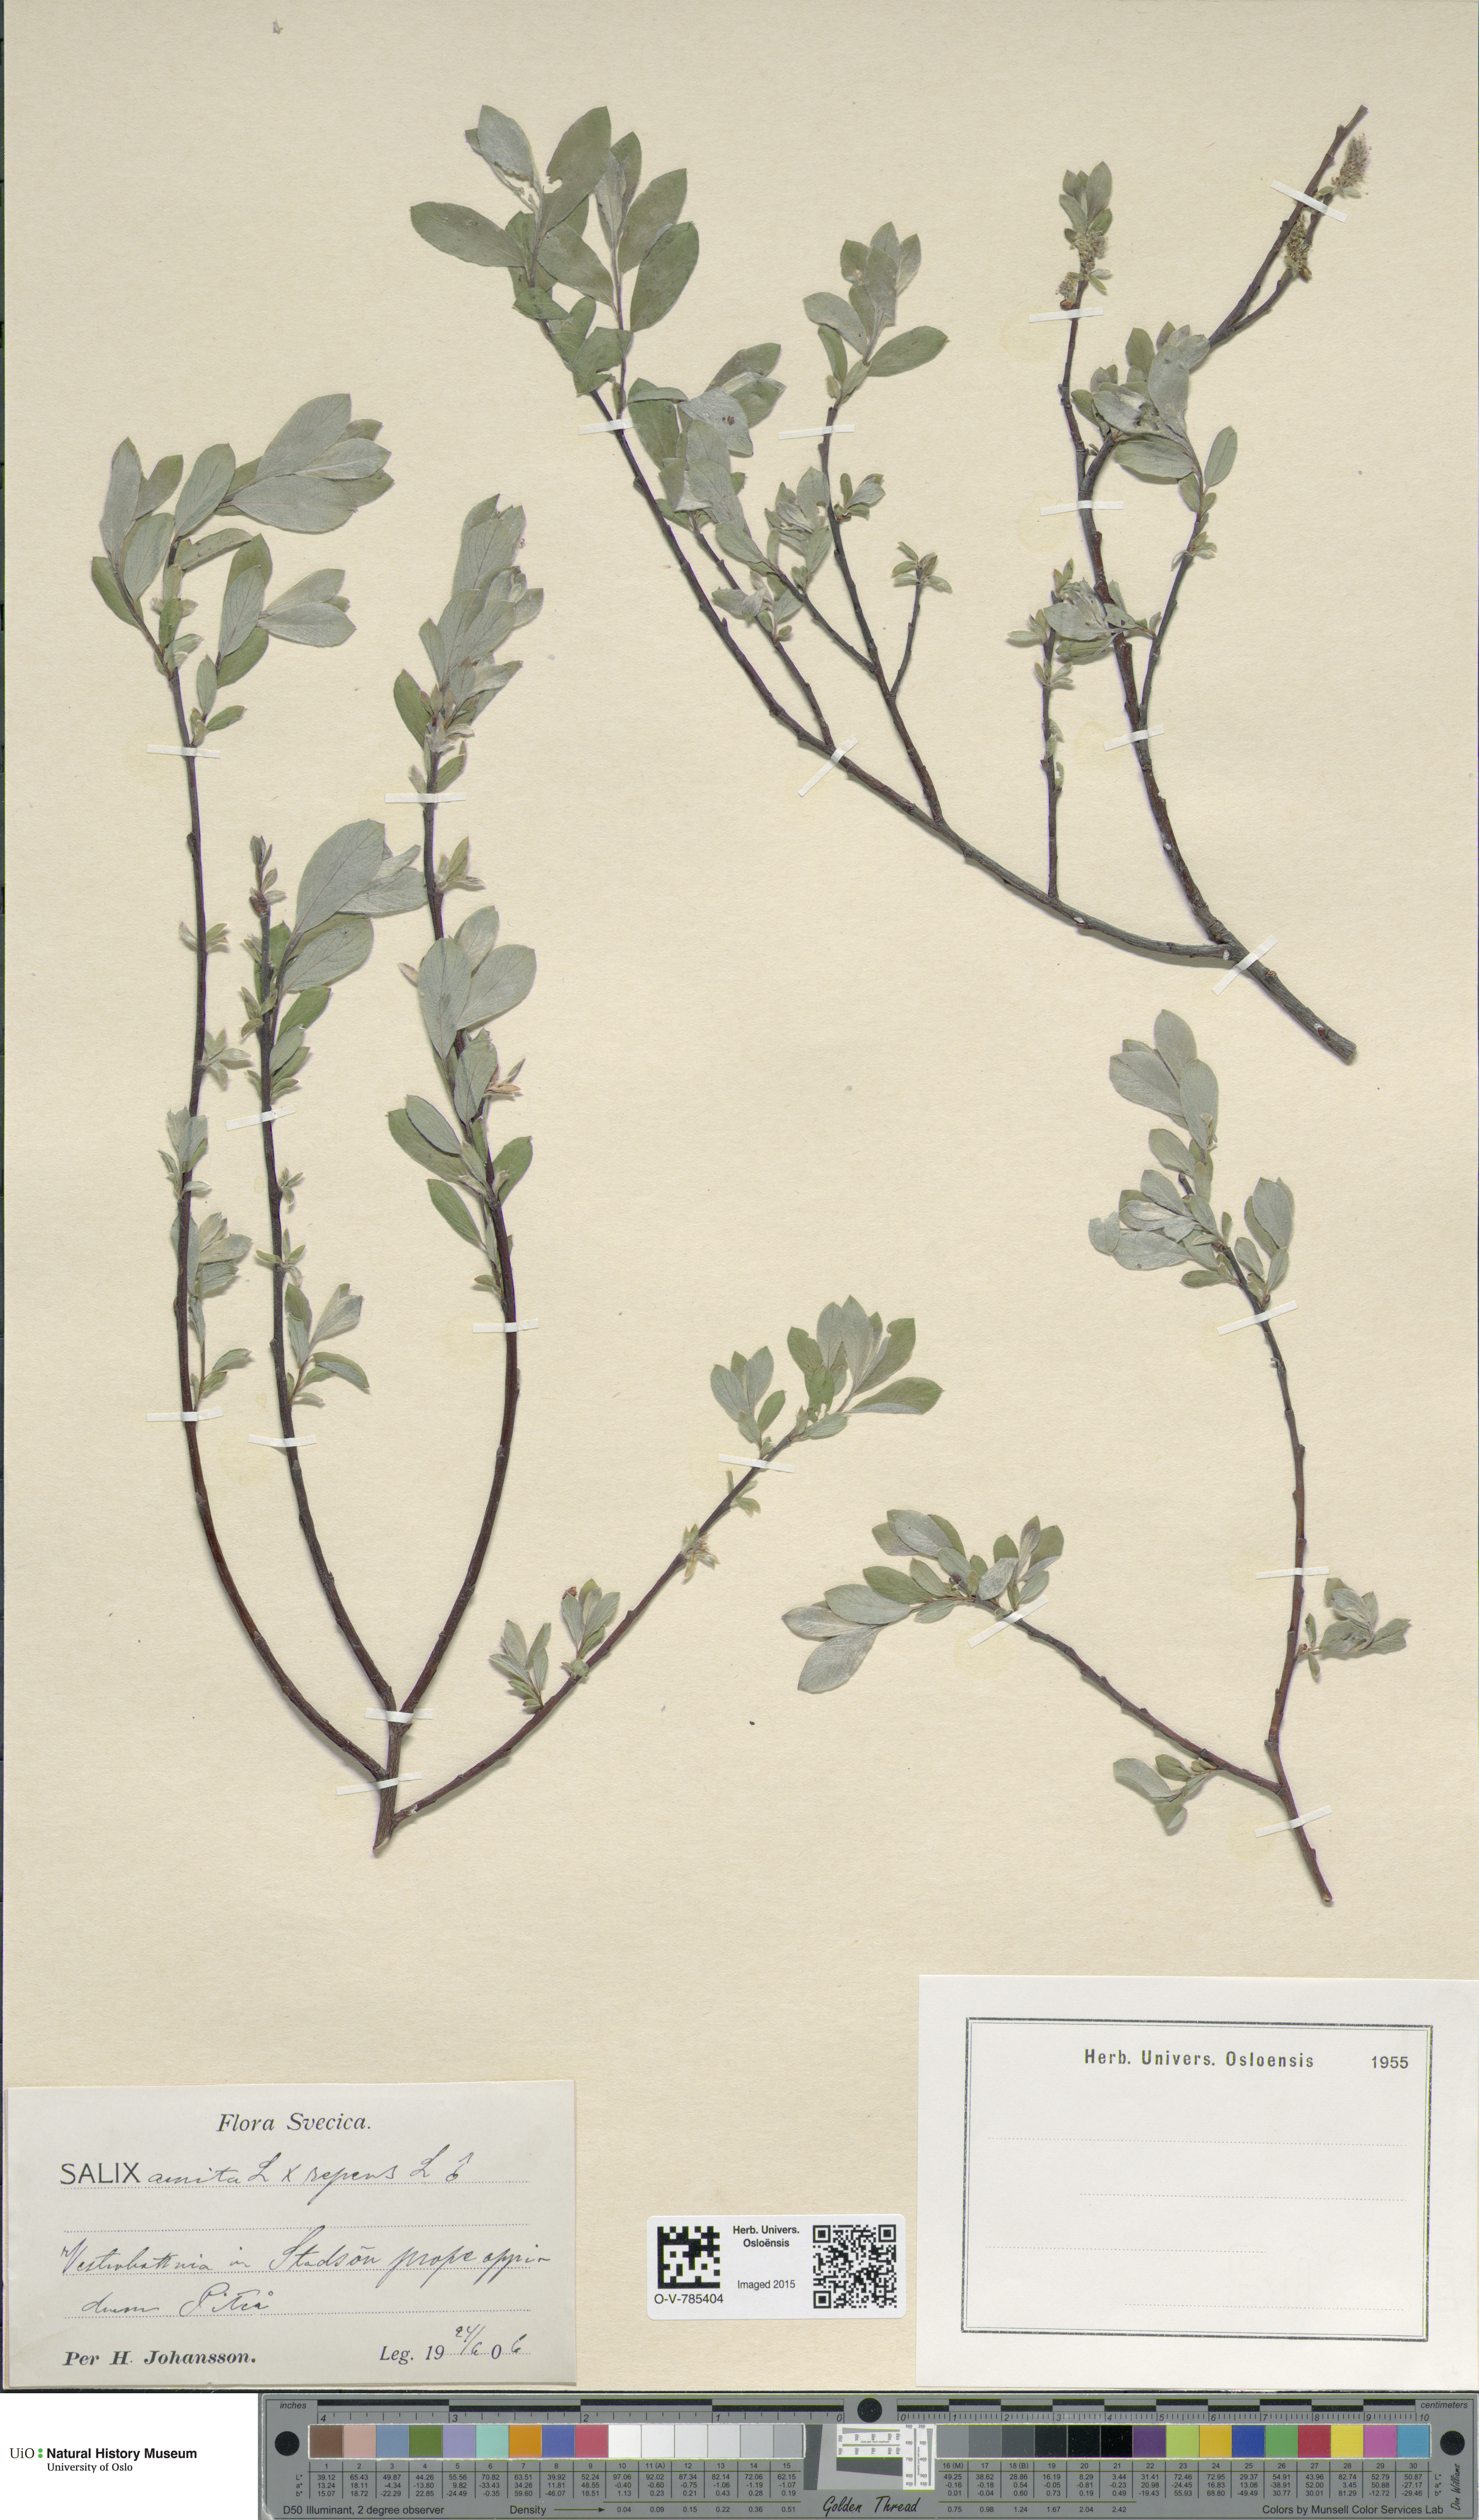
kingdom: Plantae
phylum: Tracheophyta
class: Magnoliopsida
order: Malpighiales
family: Salicaceae
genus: Salix
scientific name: Salix
